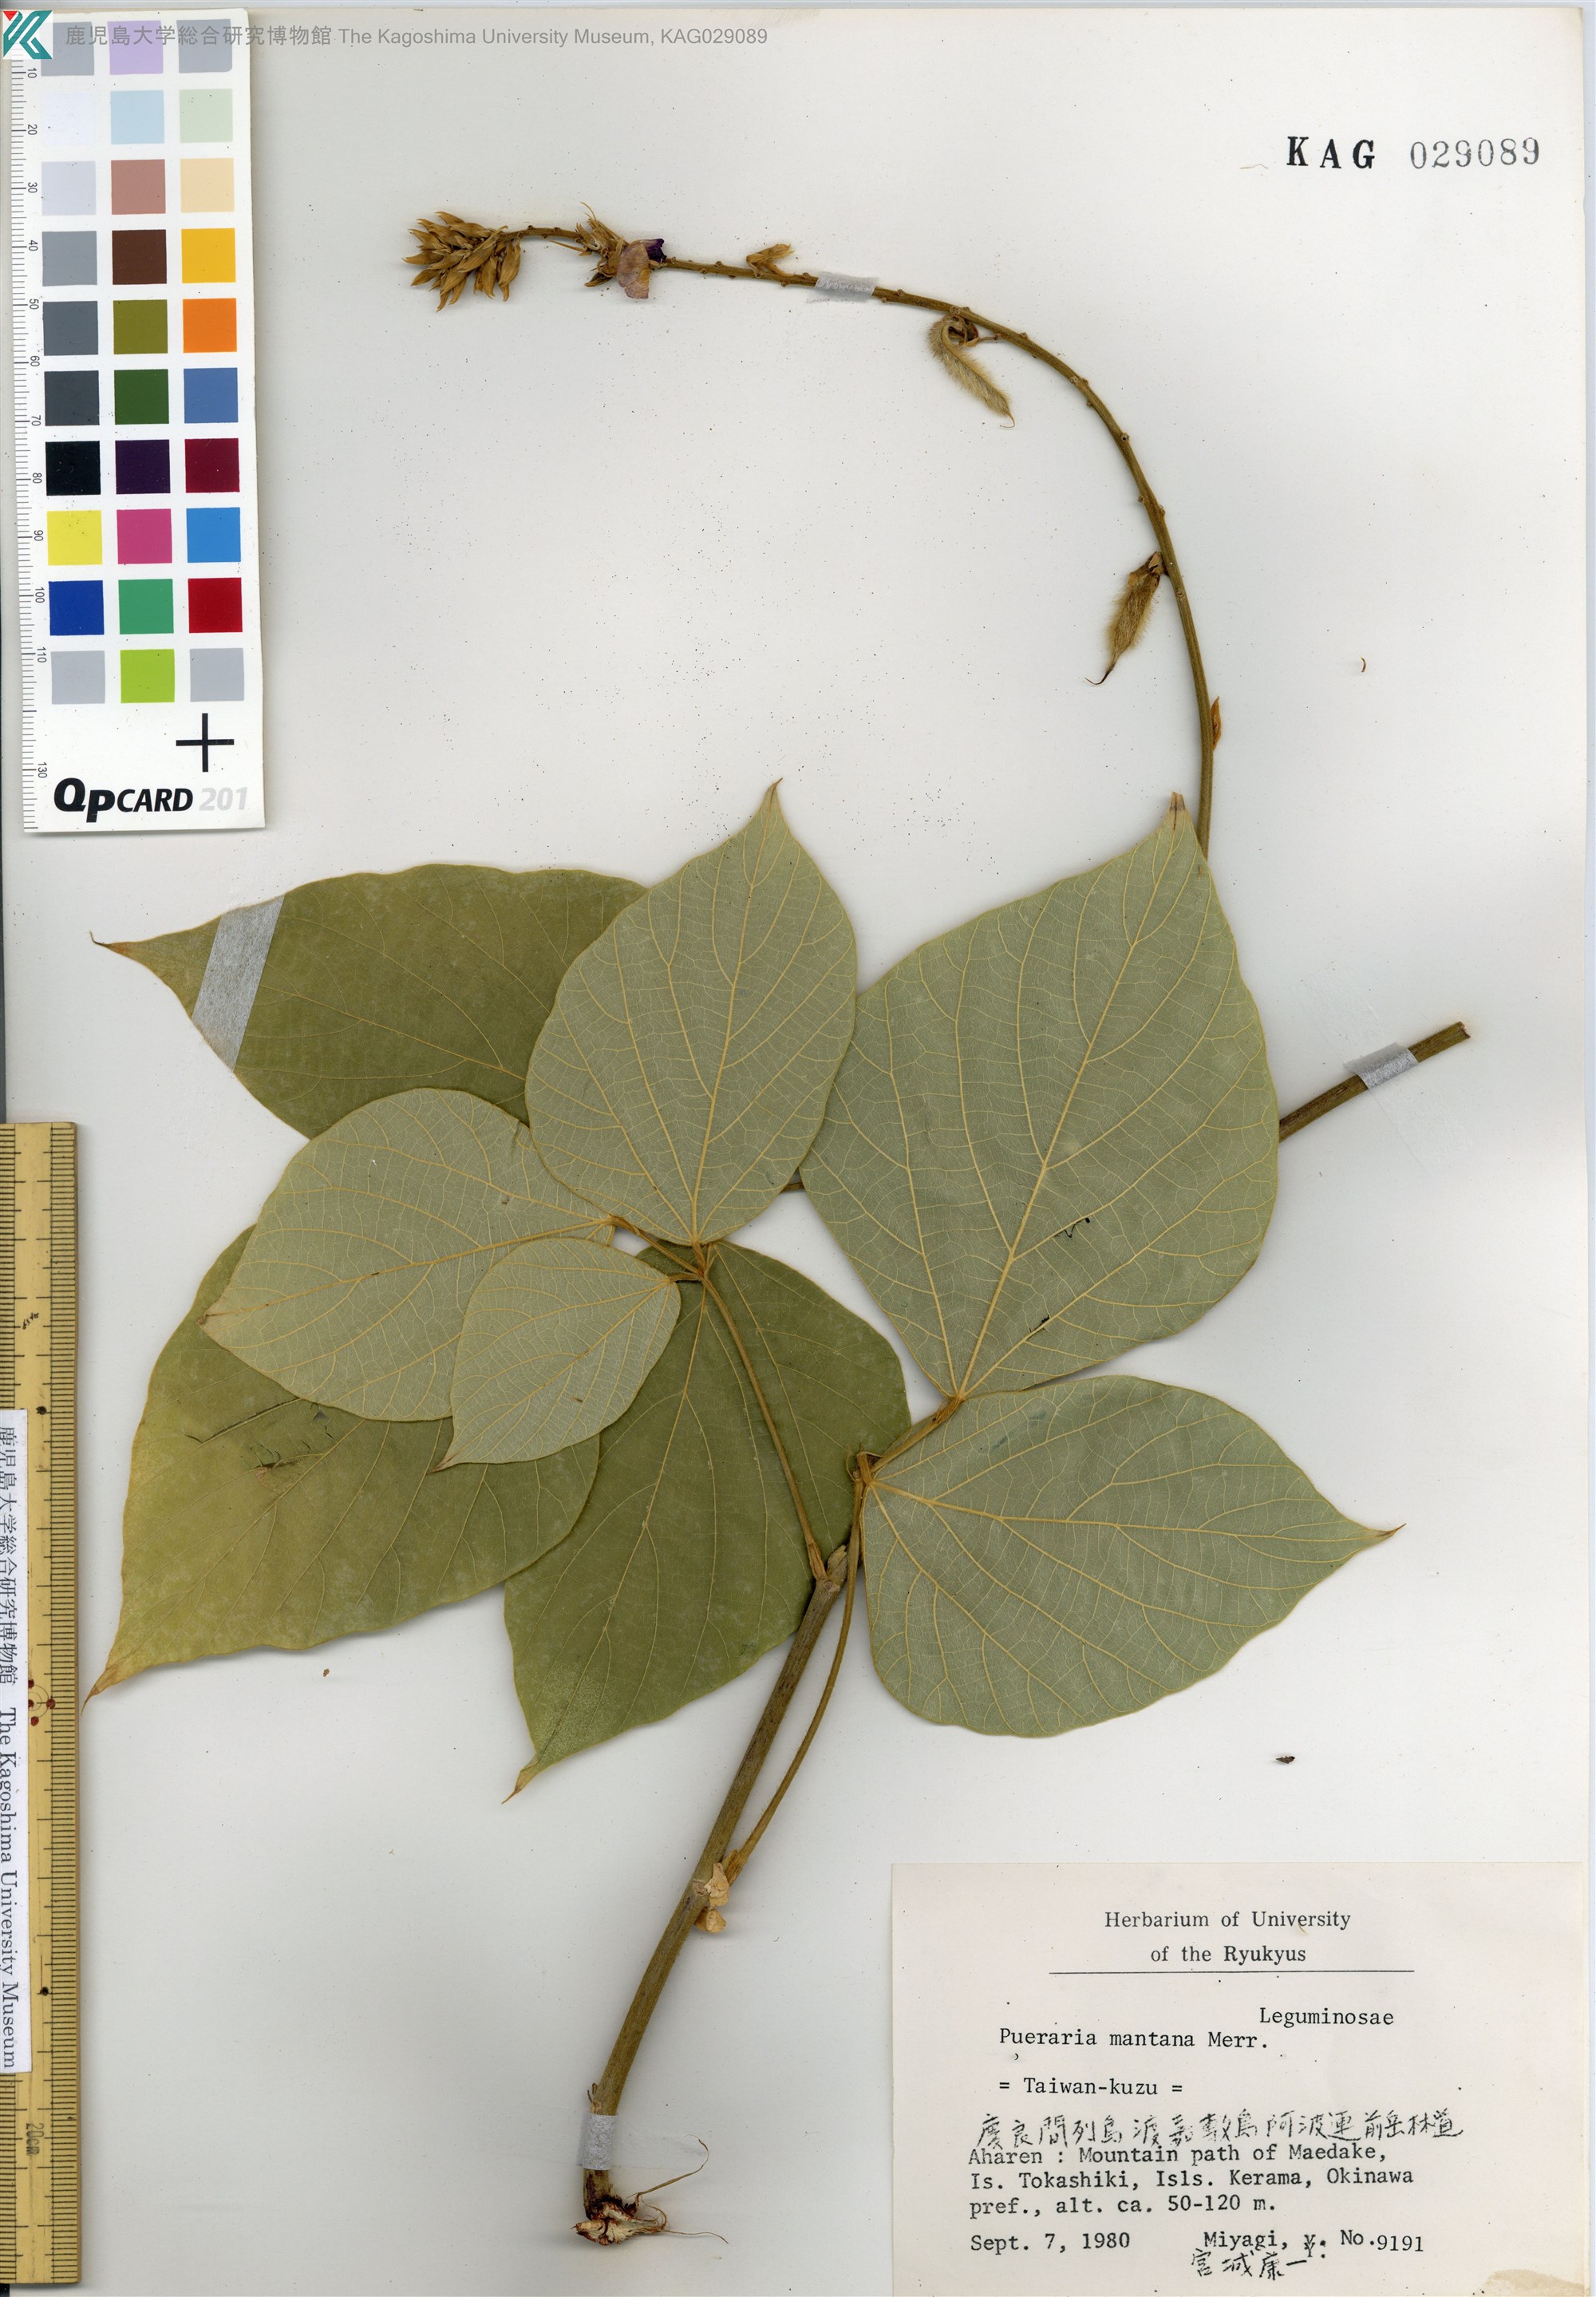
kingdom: Plantae
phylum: Tracheophyta
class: Magnoliopsida
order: Fabales
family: Fabaceae
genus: Pueraria
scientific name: Pueraria montana
